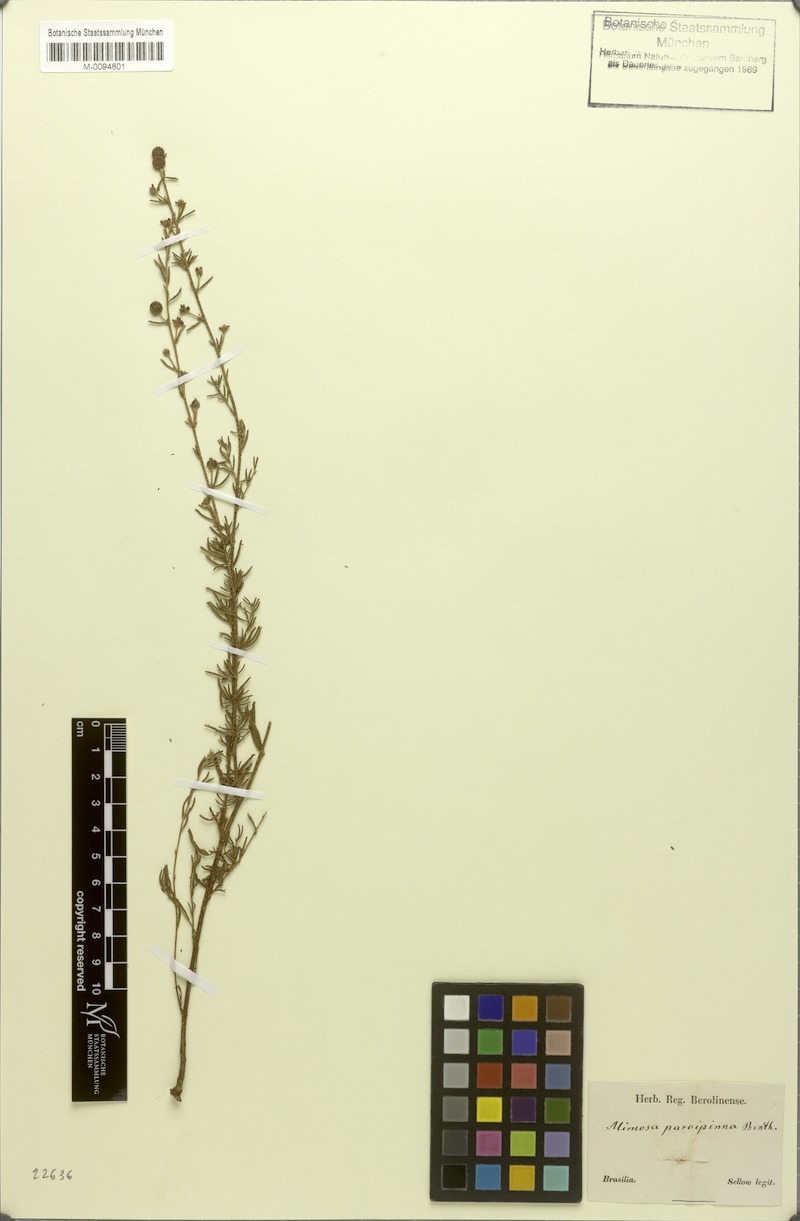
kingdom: Plantae
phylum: Tracheophyta
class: Magnoliopsida
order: Fabales
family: Fabaceae
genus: Mimosa
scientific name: Mimosa parvipinna
